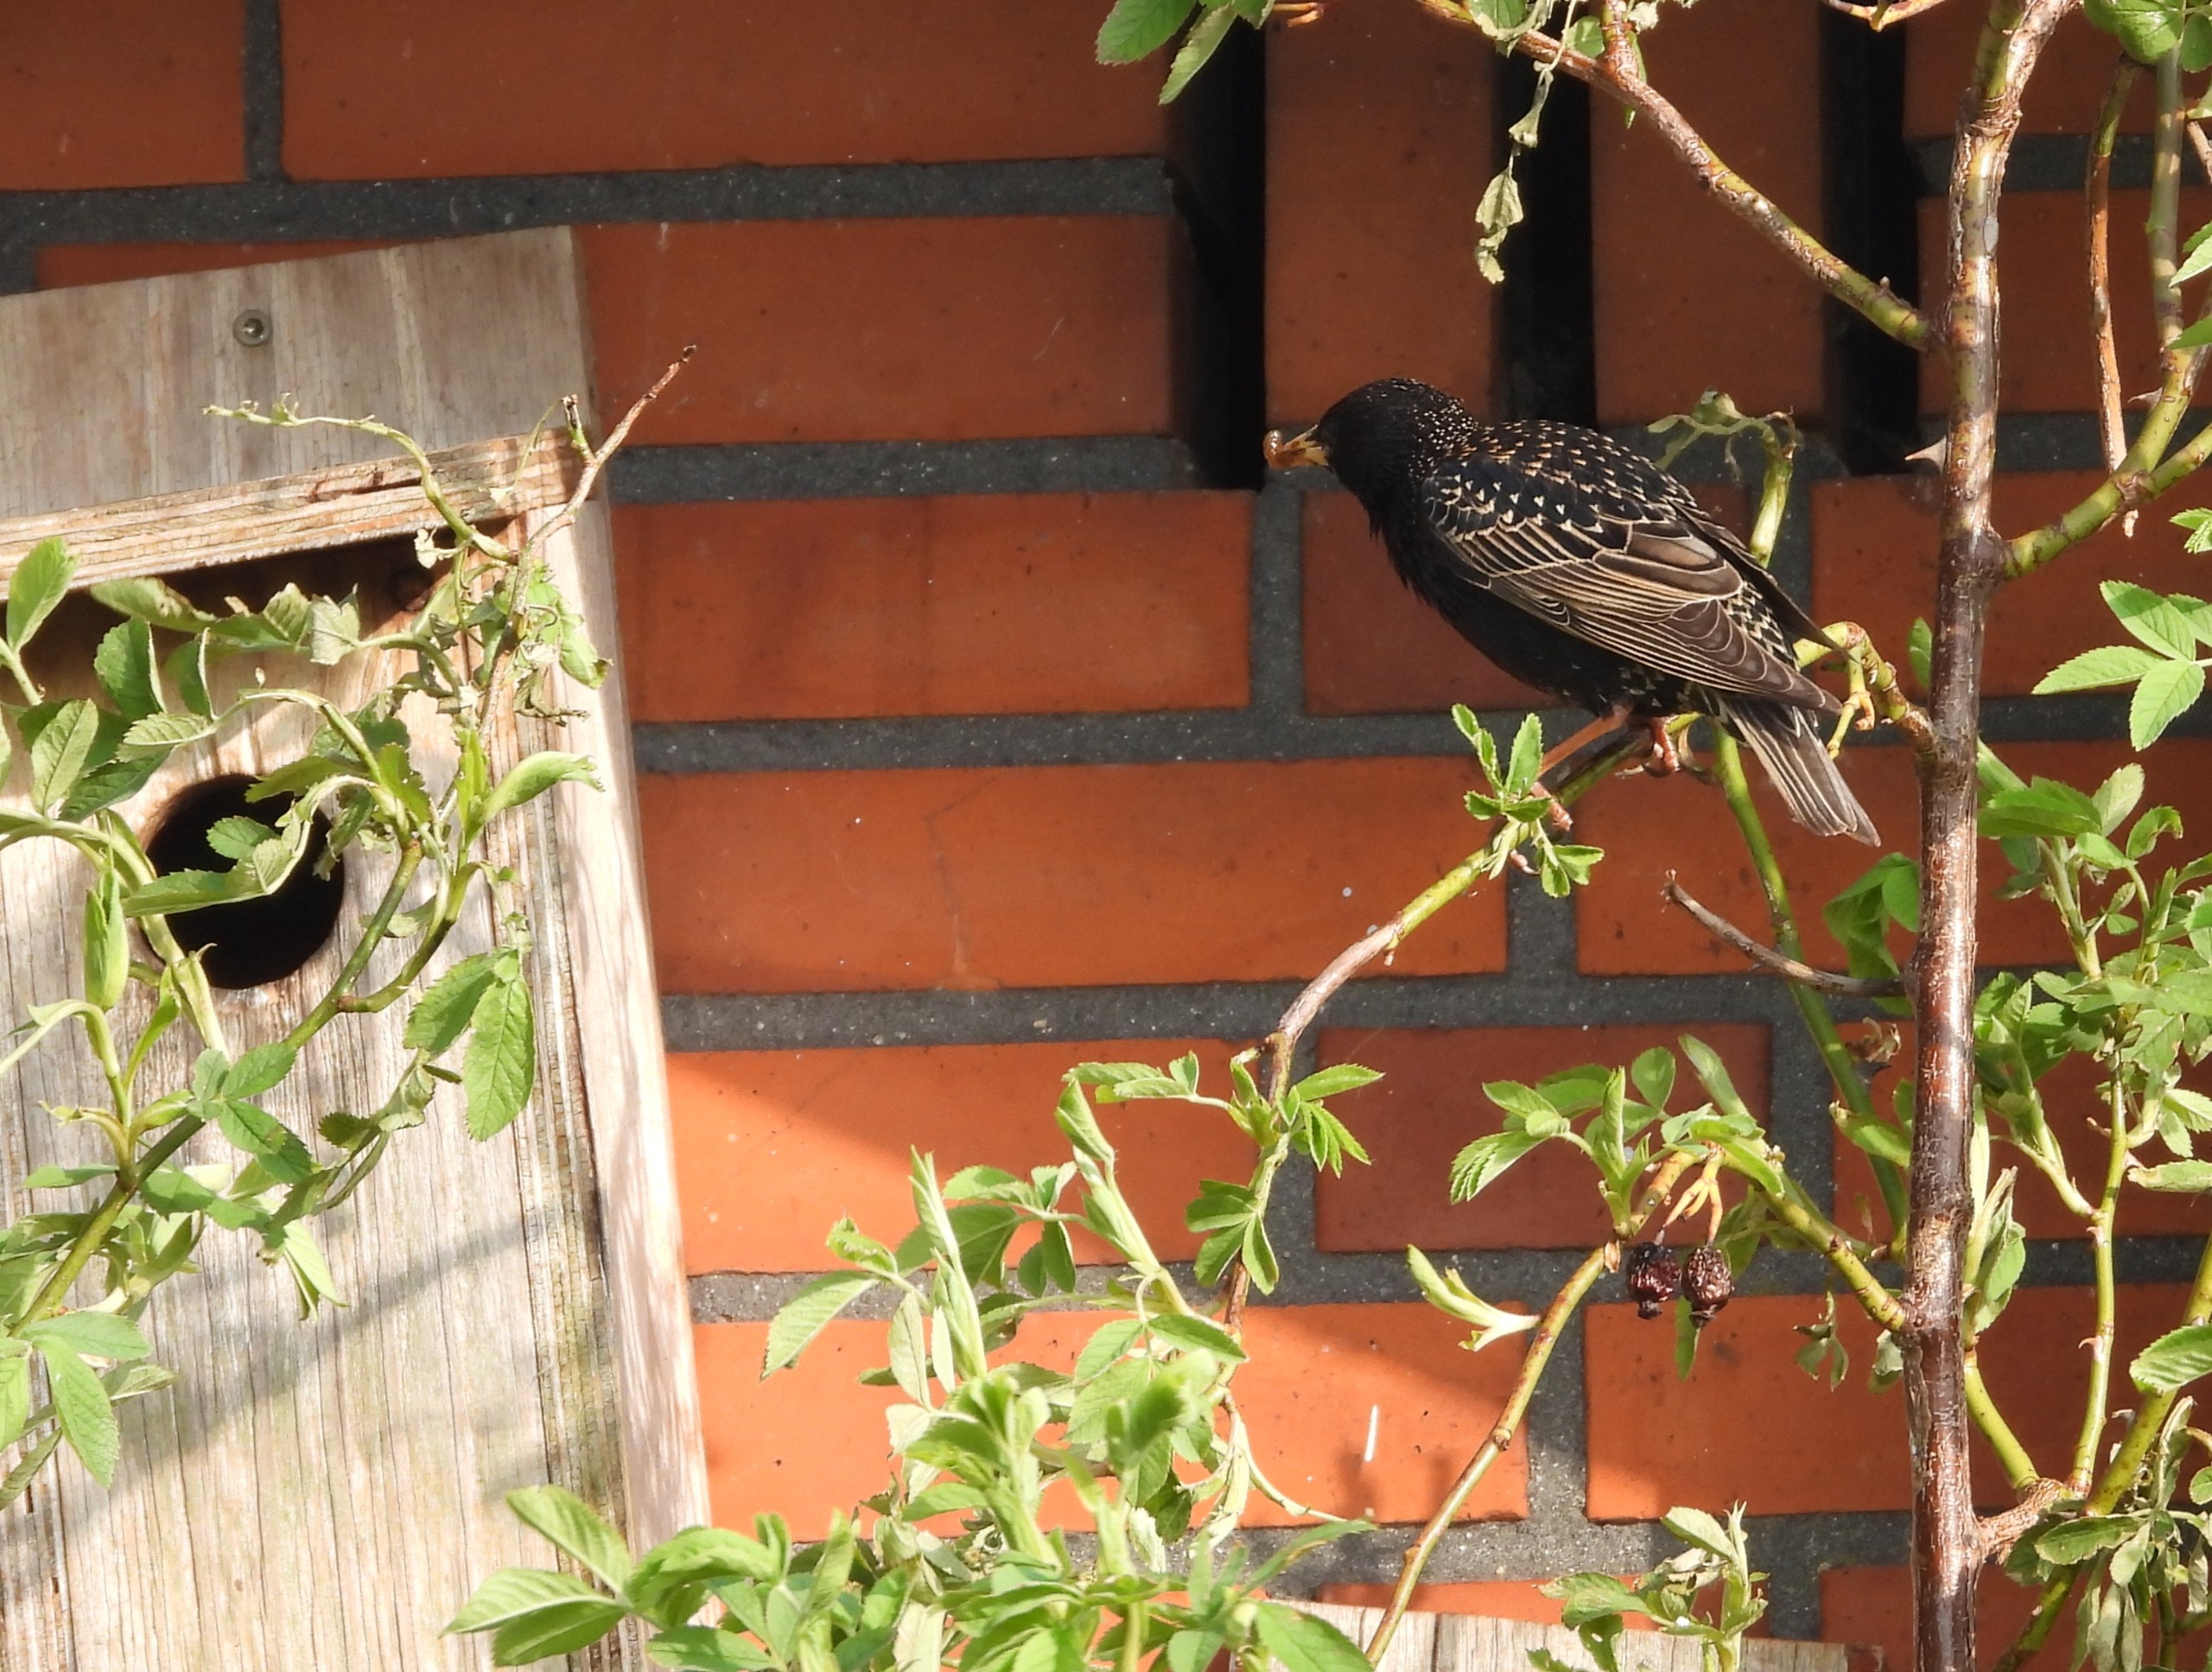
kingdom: Animalia
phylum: Chordata
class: Aves
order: Passeriformes
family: Sturnidae
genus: Sturnus
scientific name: Sturnus vulgaris
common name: Stær
